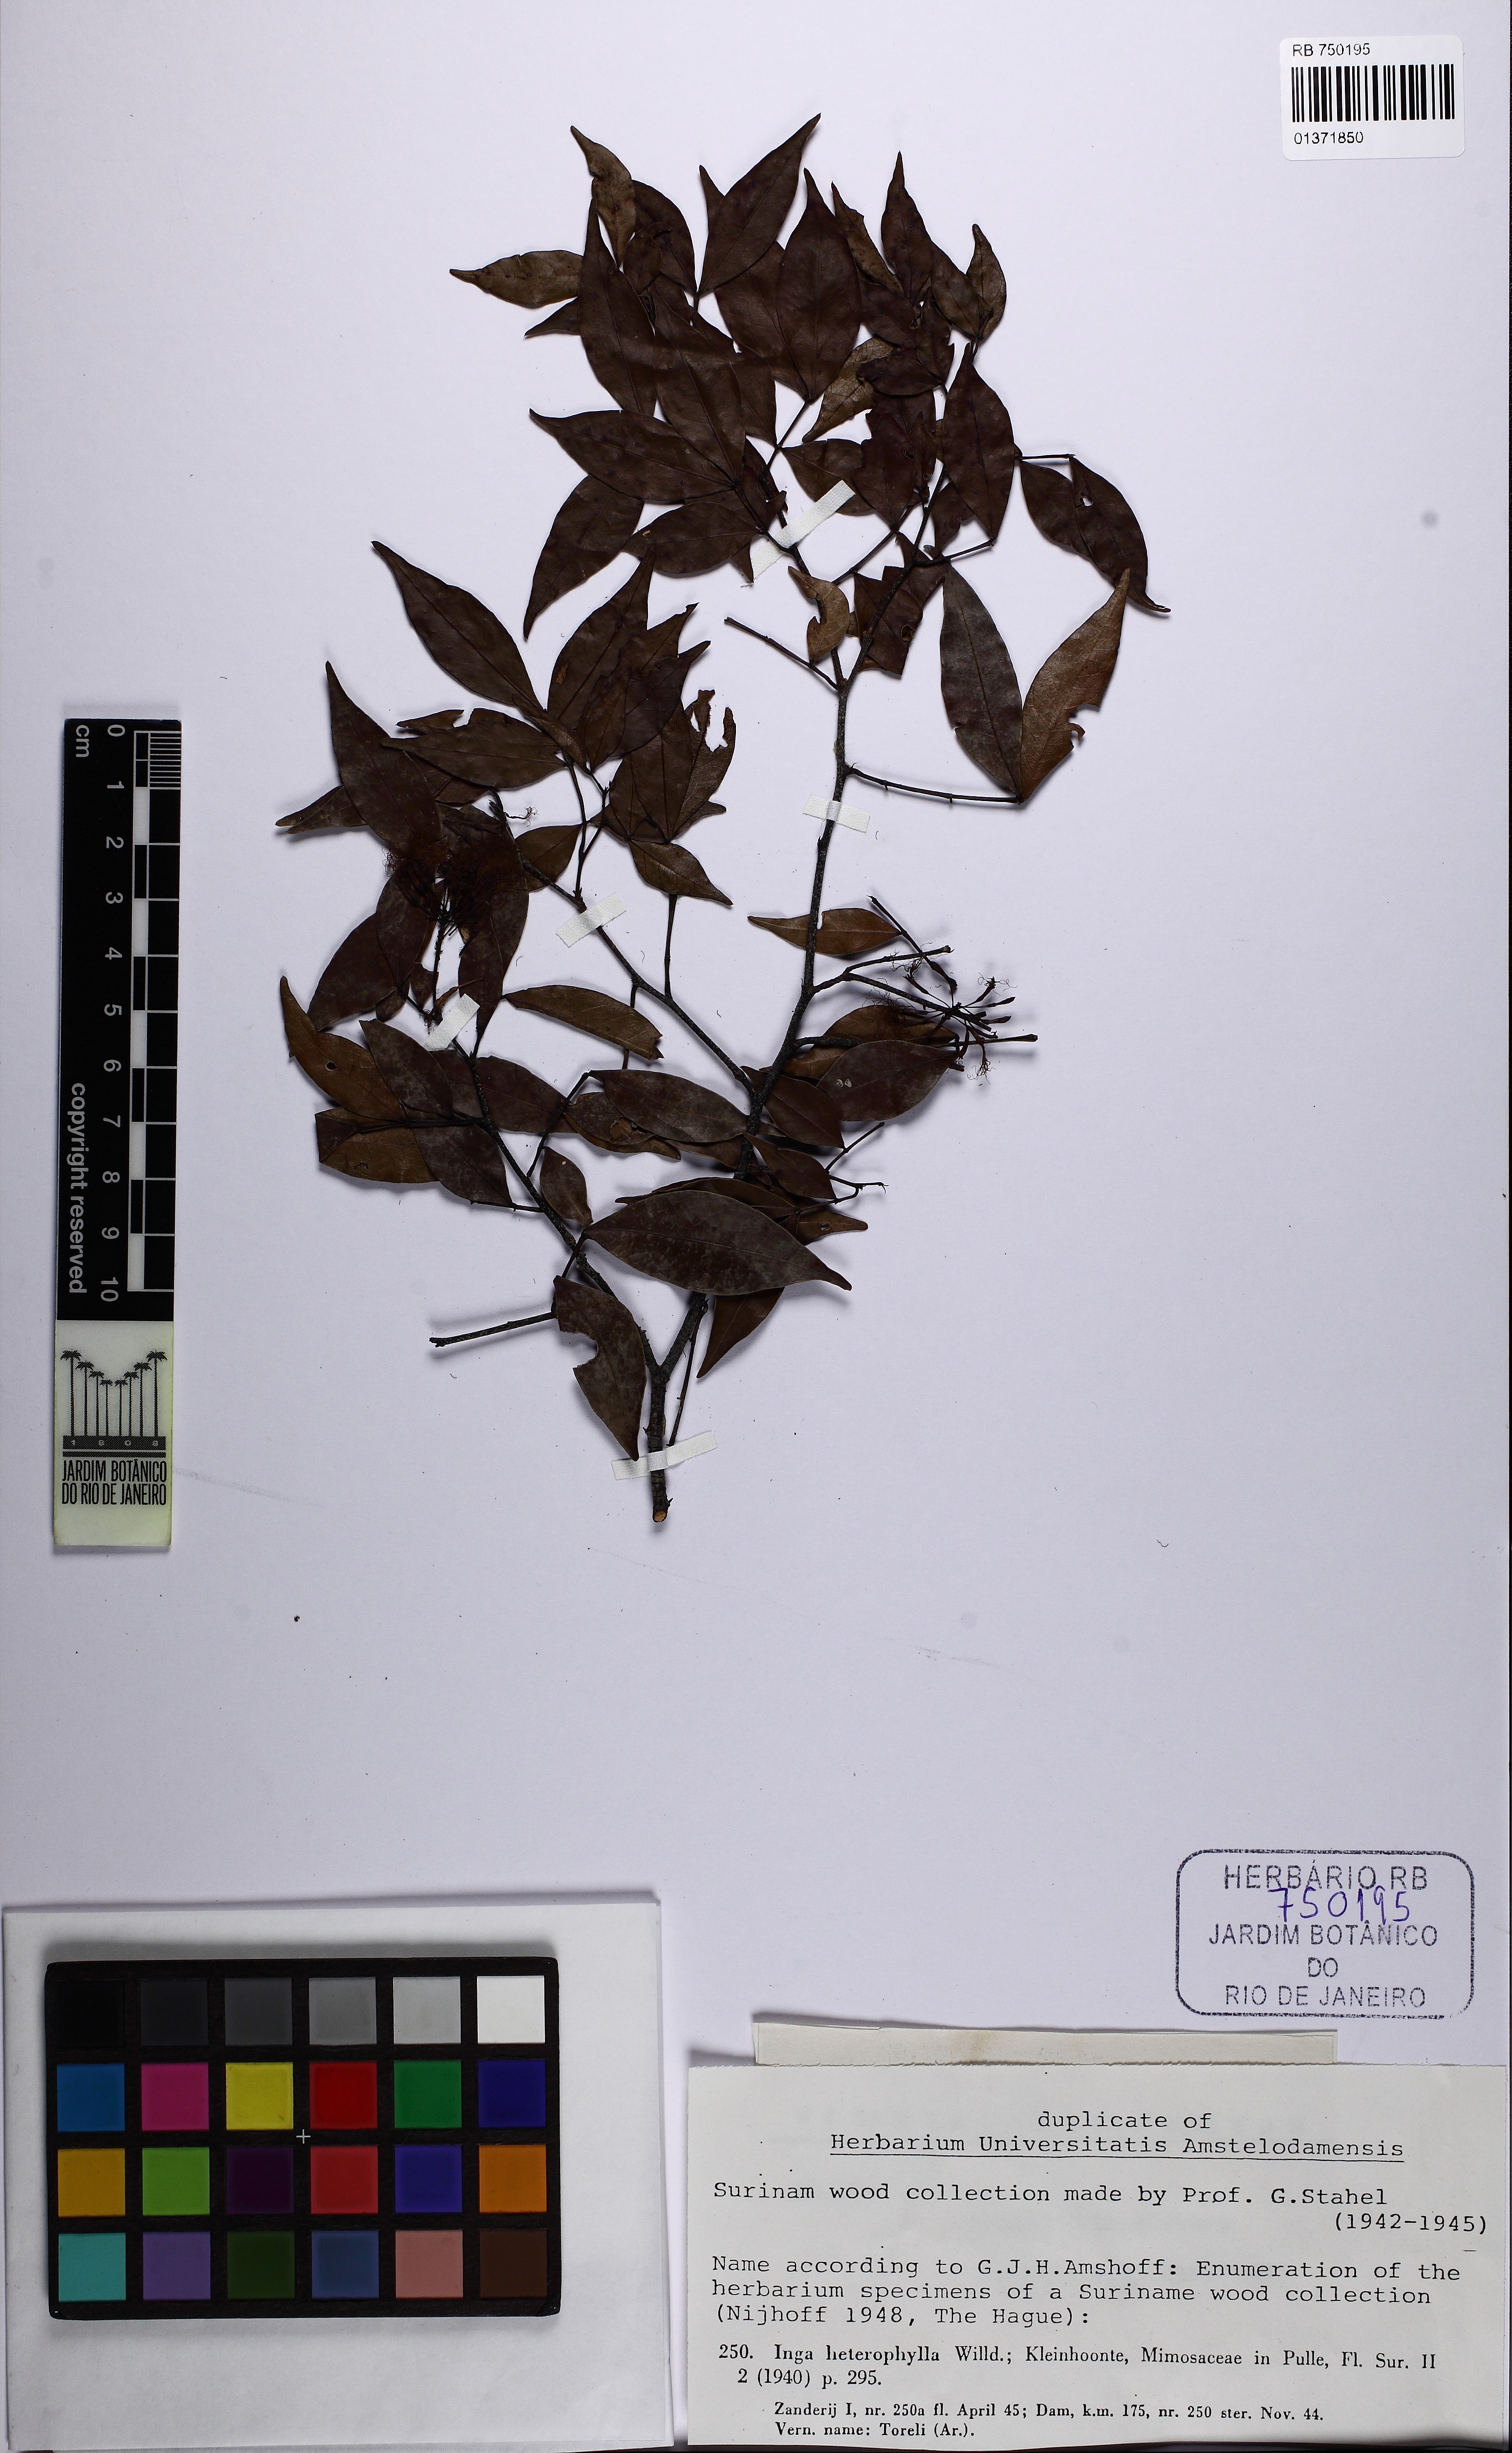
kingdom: Plantae
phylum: Tracheophyta
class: Magnoliopsida
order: Fabales
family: Fabaceae
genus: Inga
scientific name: Inga heterophylla
